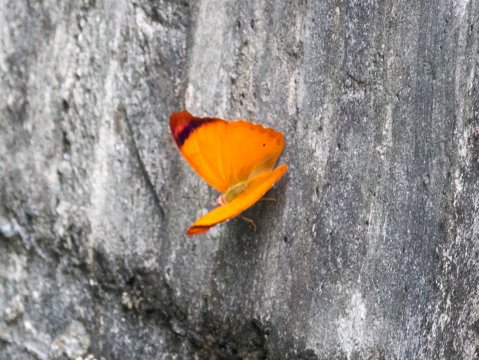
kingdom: Animalia
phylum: Arthropoda
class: Insecta
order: Lepidoptera
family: Nymphalidae
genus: Temenis
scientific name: Temenis laothoe
